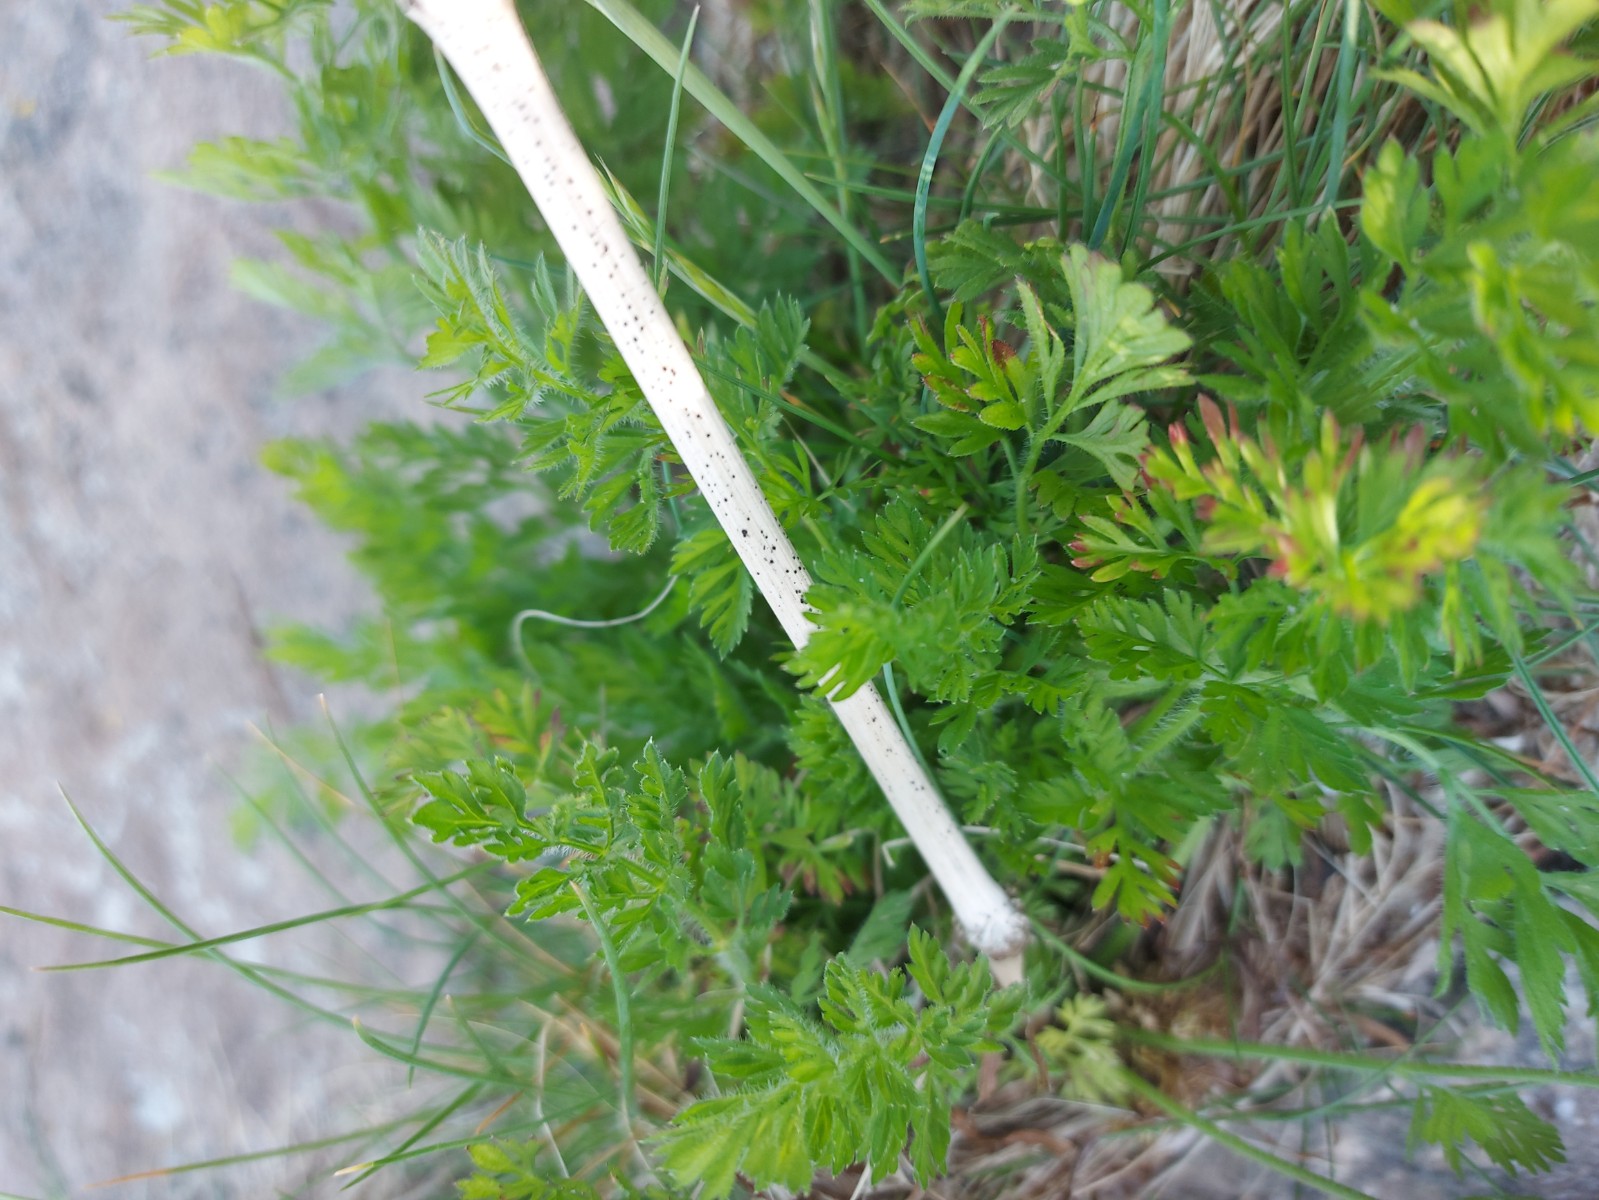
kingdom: Fungi
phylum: Ascomycota
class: Leotiomycetes
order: Helotiales
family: Heterosphaeriaceae
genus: Heterosphaeria
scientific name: Heterosphaeria
